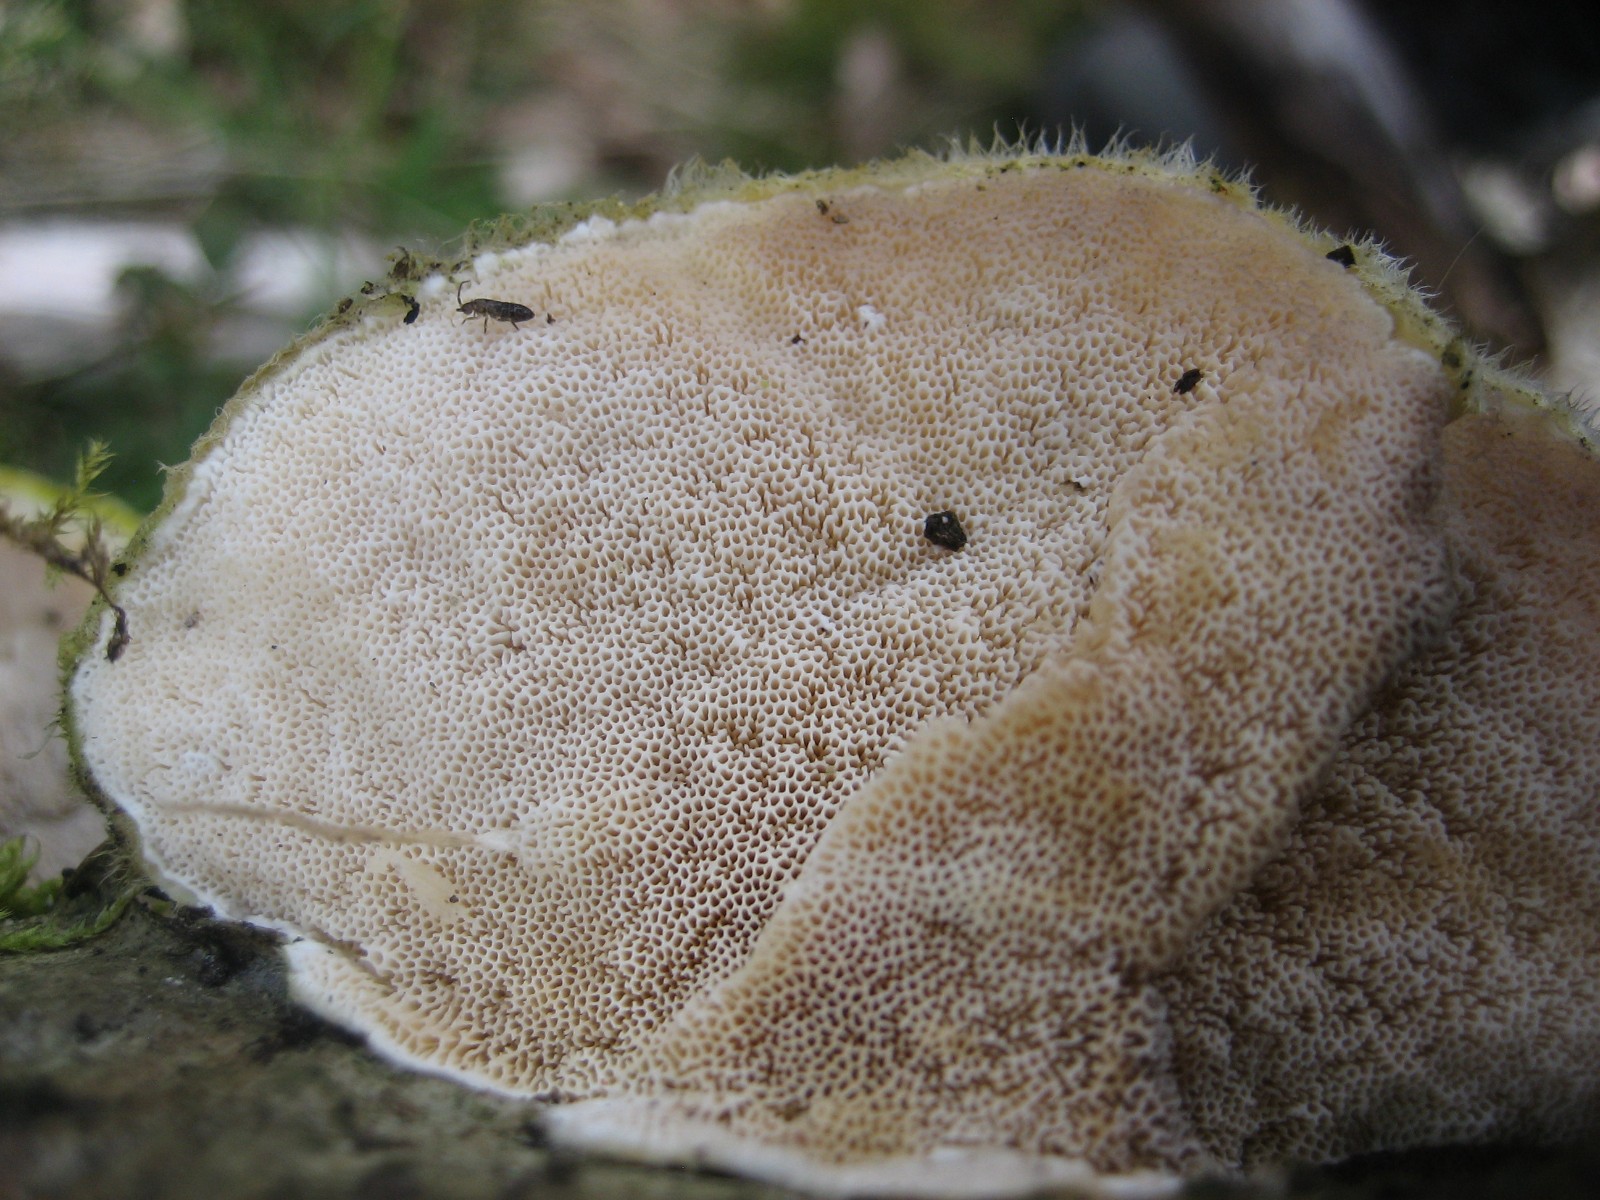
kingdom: Fungi
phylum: Basidiomycota
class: Agaricomycetes
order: Polyporales
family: Polyporaceae
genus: Trametes
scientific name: Trametes hirsuta
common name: håret læderporesvamp
